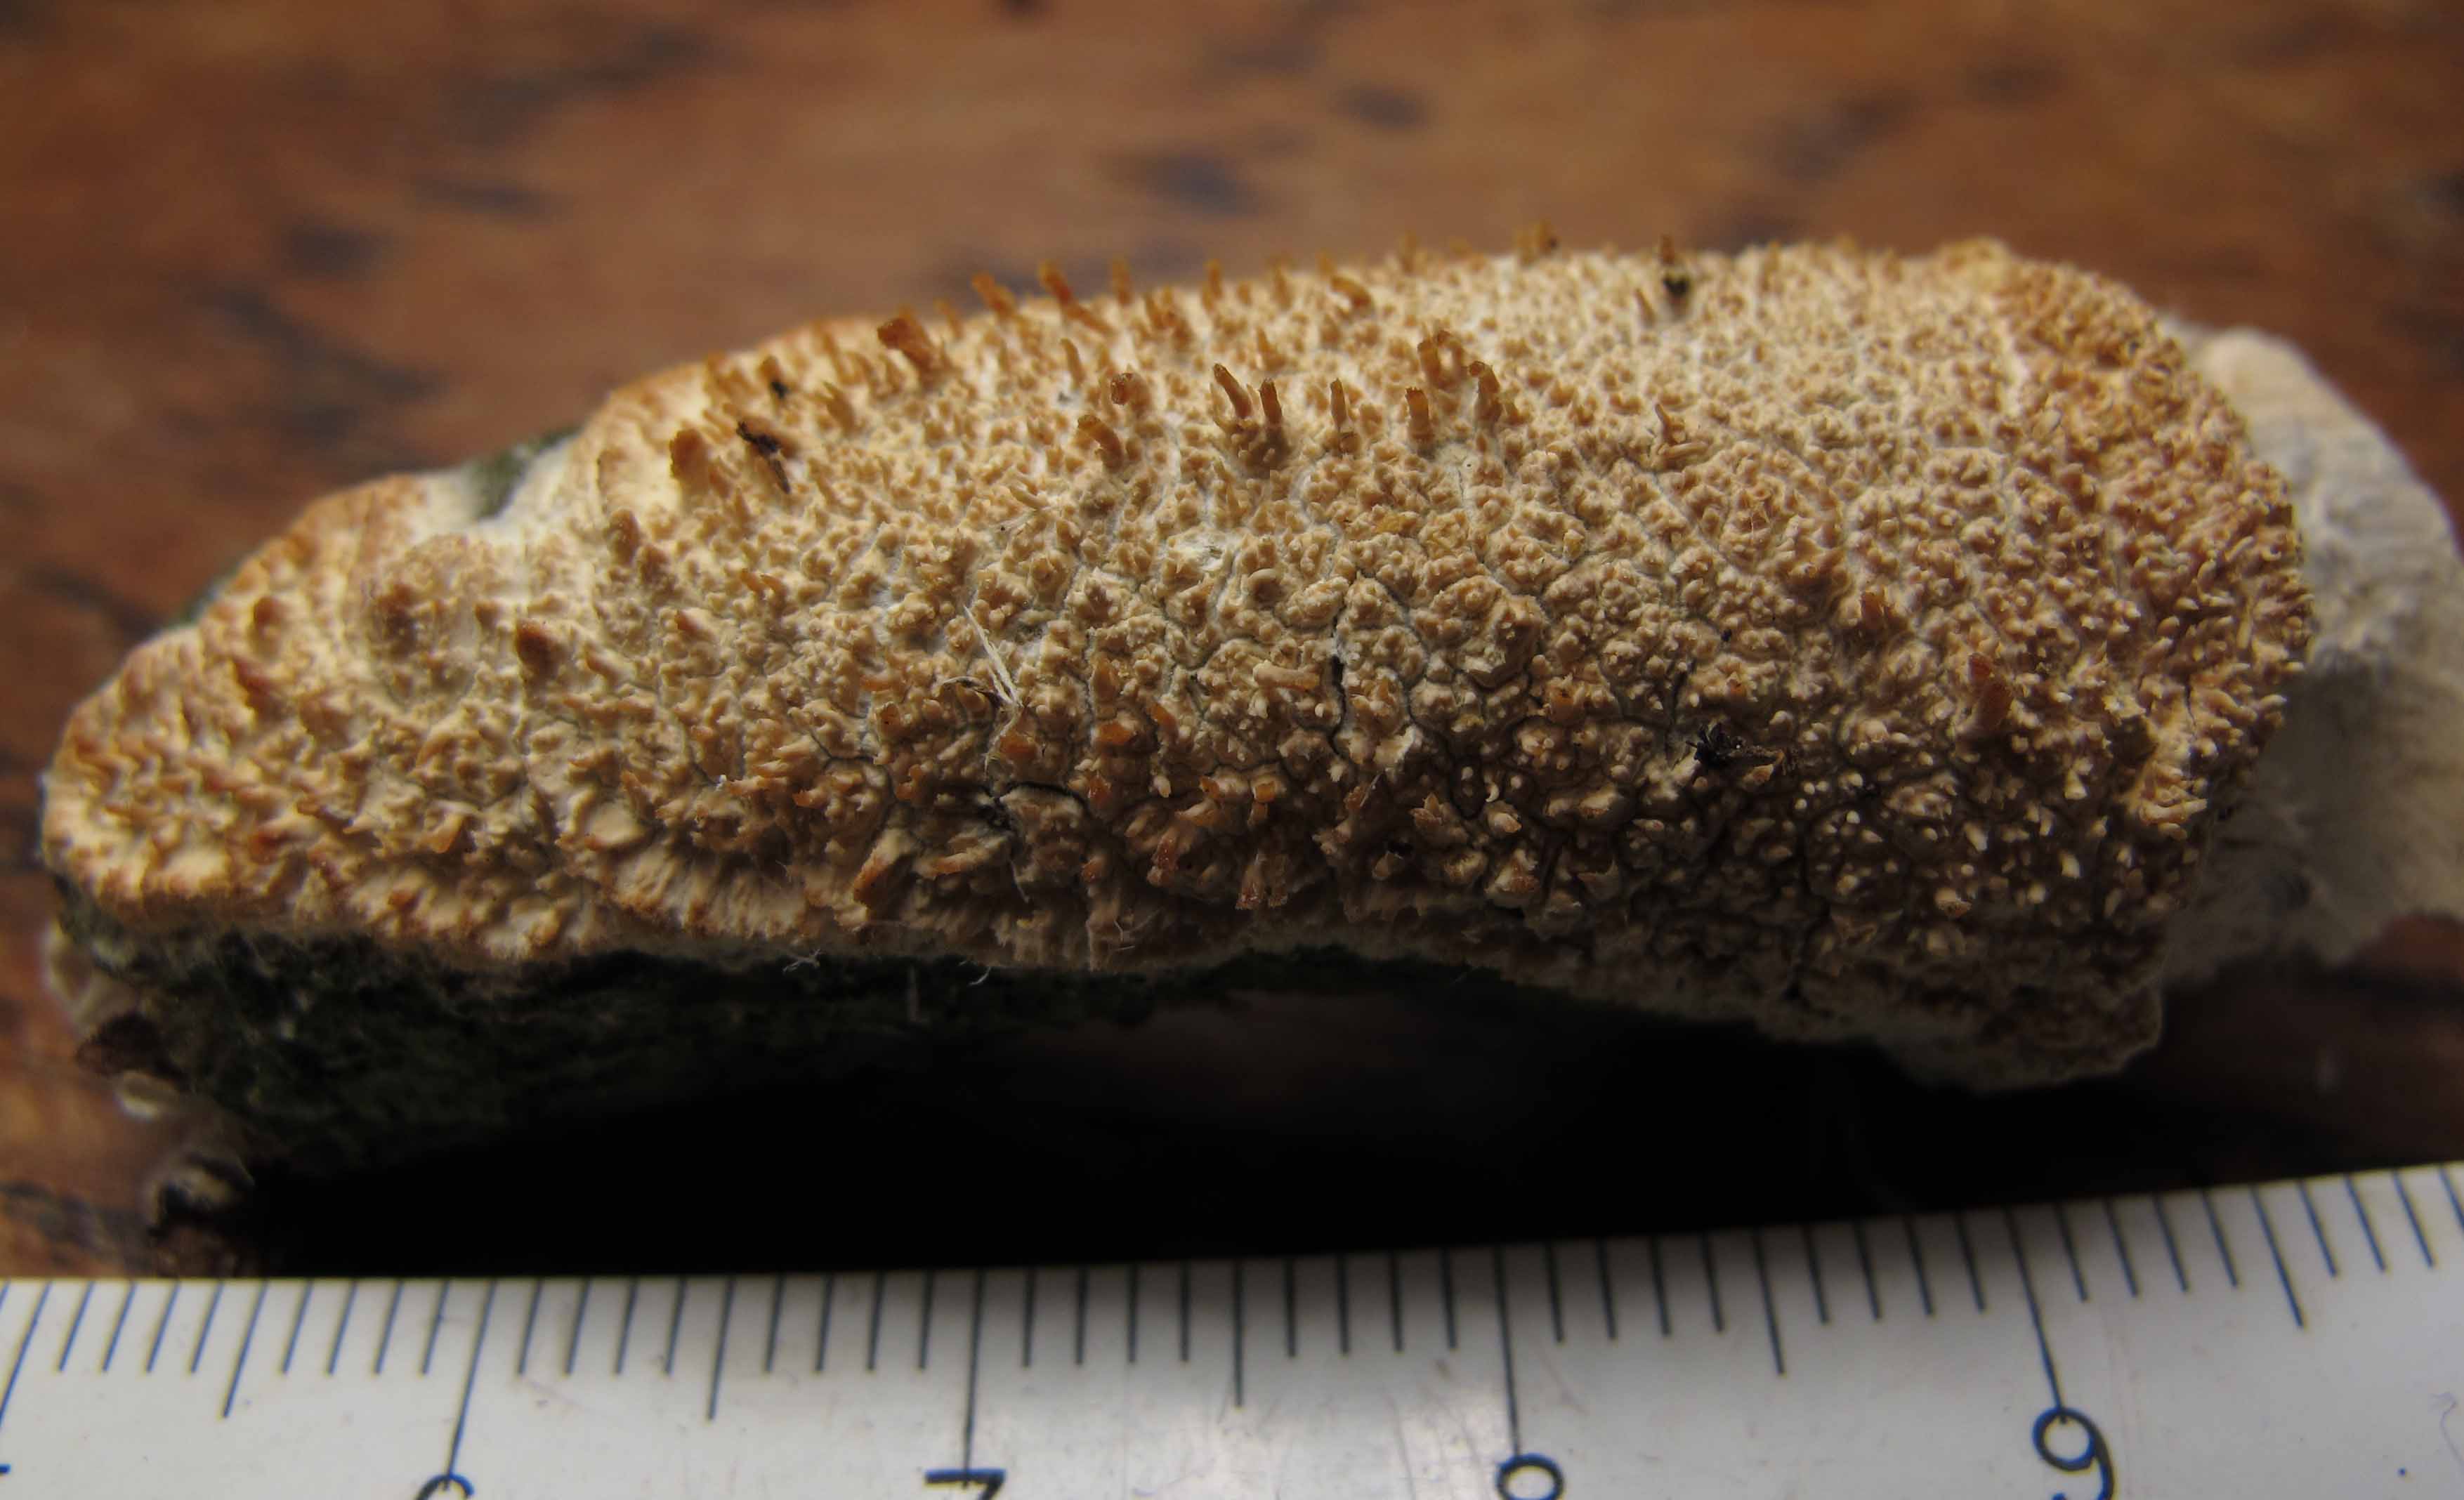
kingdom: Fungi
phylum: Basidiomycota
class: Agaricomycetes
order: Hymenochaetales
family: Hyphodontiaceae
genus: Hyphodontia
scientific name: Hyphodontia quercina
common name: ege-tandsvamp
